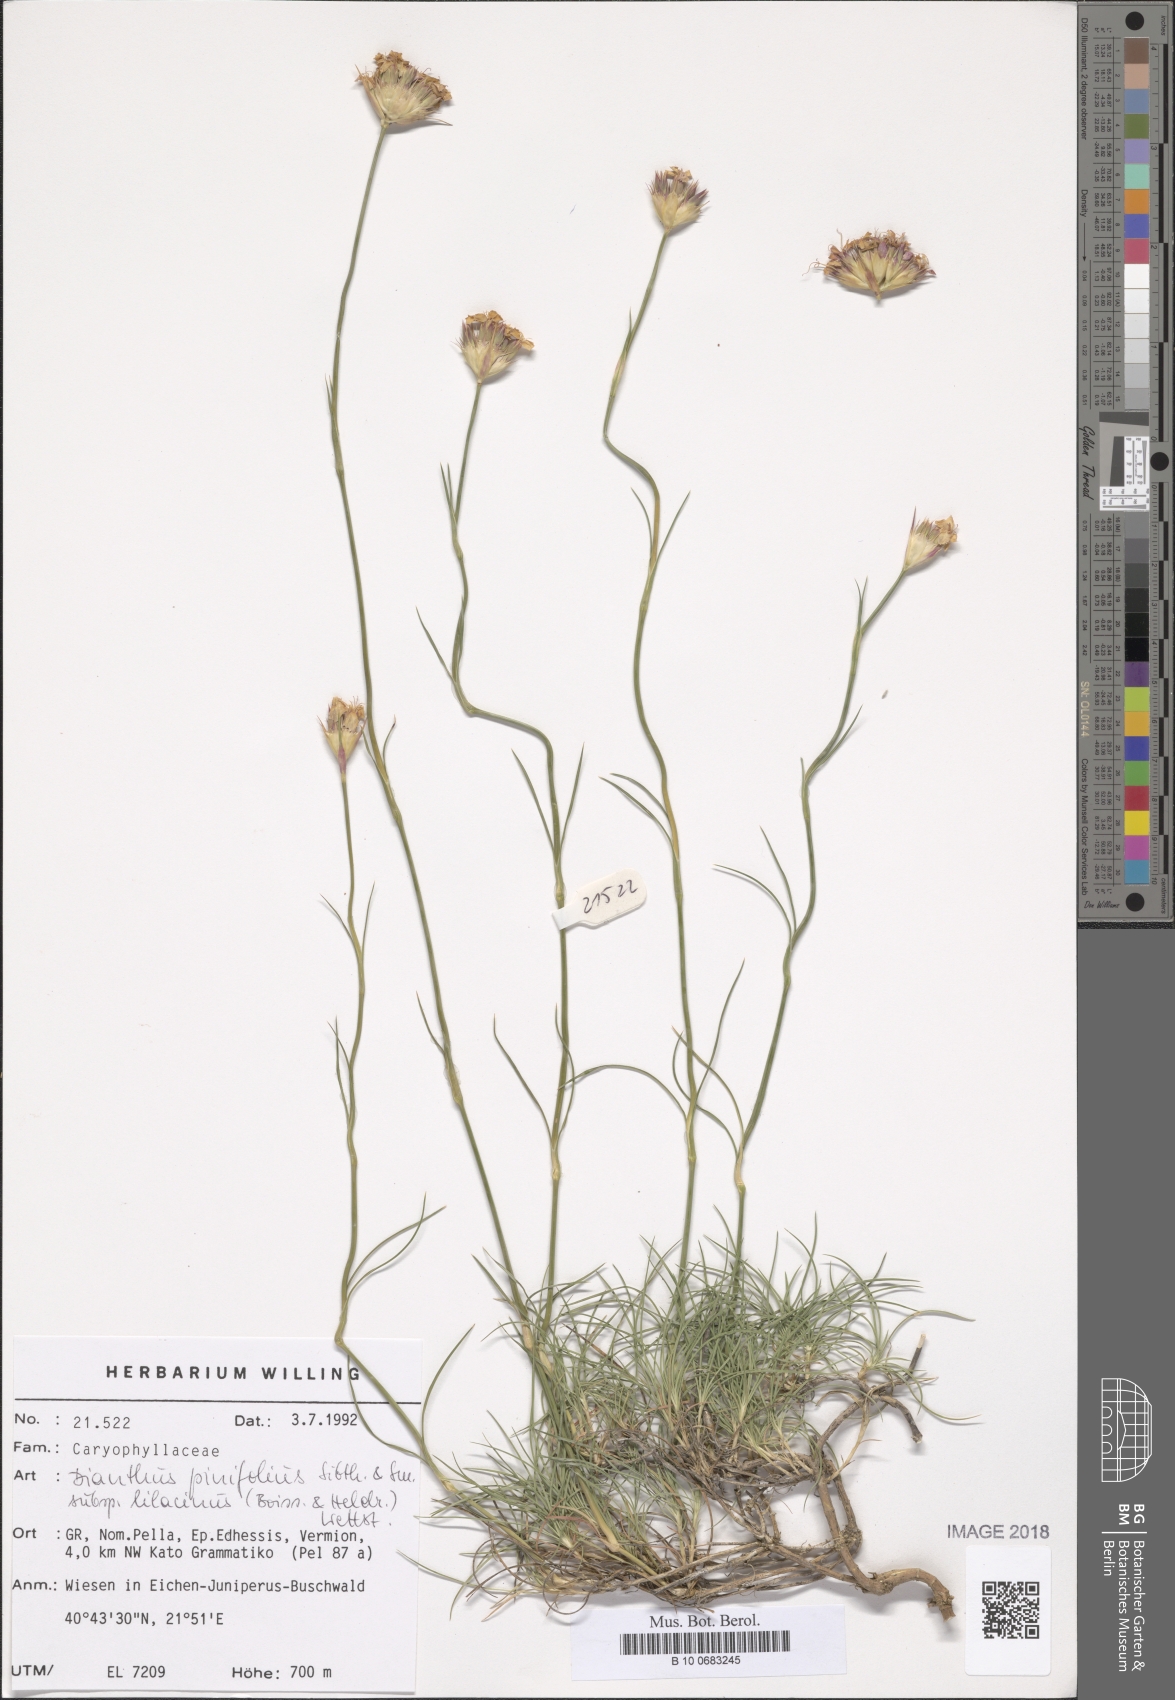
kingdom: Plantae
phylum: Tracheophyta
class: Magnoliopsida
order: Caryophyllales
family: Caryophyllaceae
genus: Dianthus
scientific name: Dianthus pinifolius
